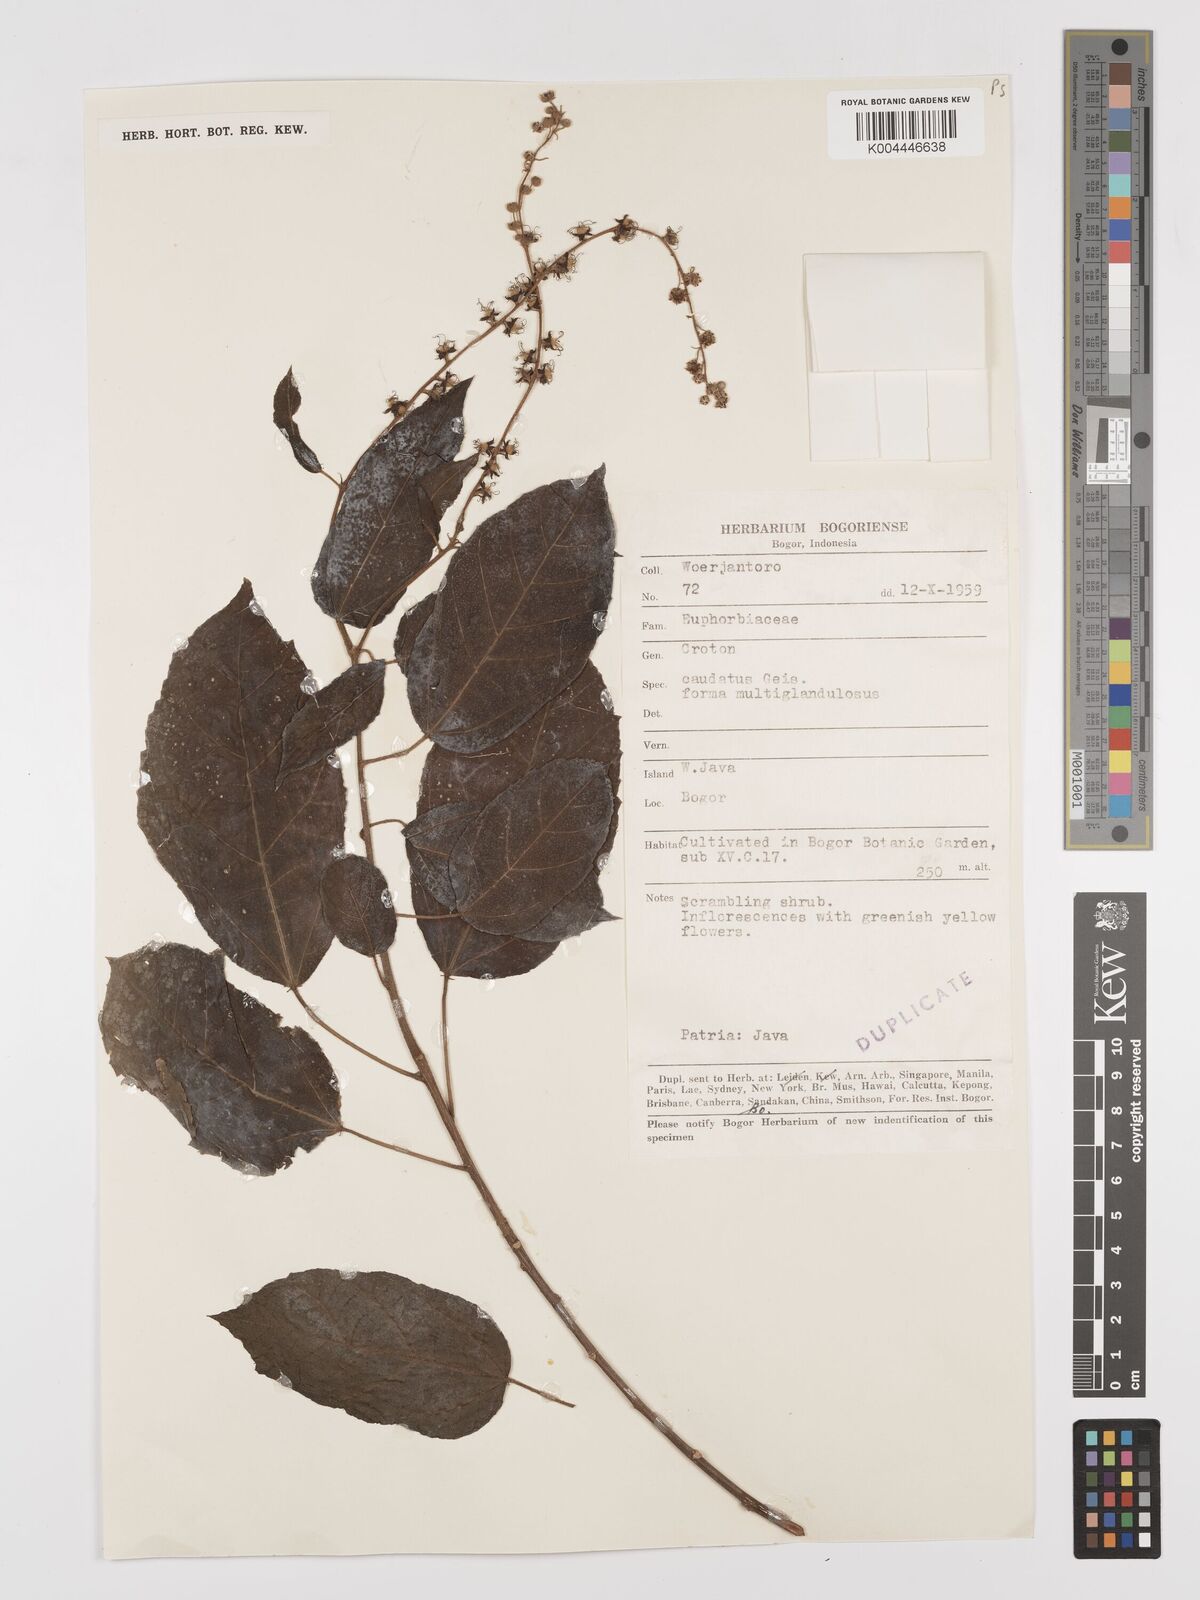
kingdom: Plantae
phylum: Tracheophyta
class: Magnoliopsida
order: Malpighiales
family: Euphorbiaceae
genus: Croton
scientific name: Croton caudatus
